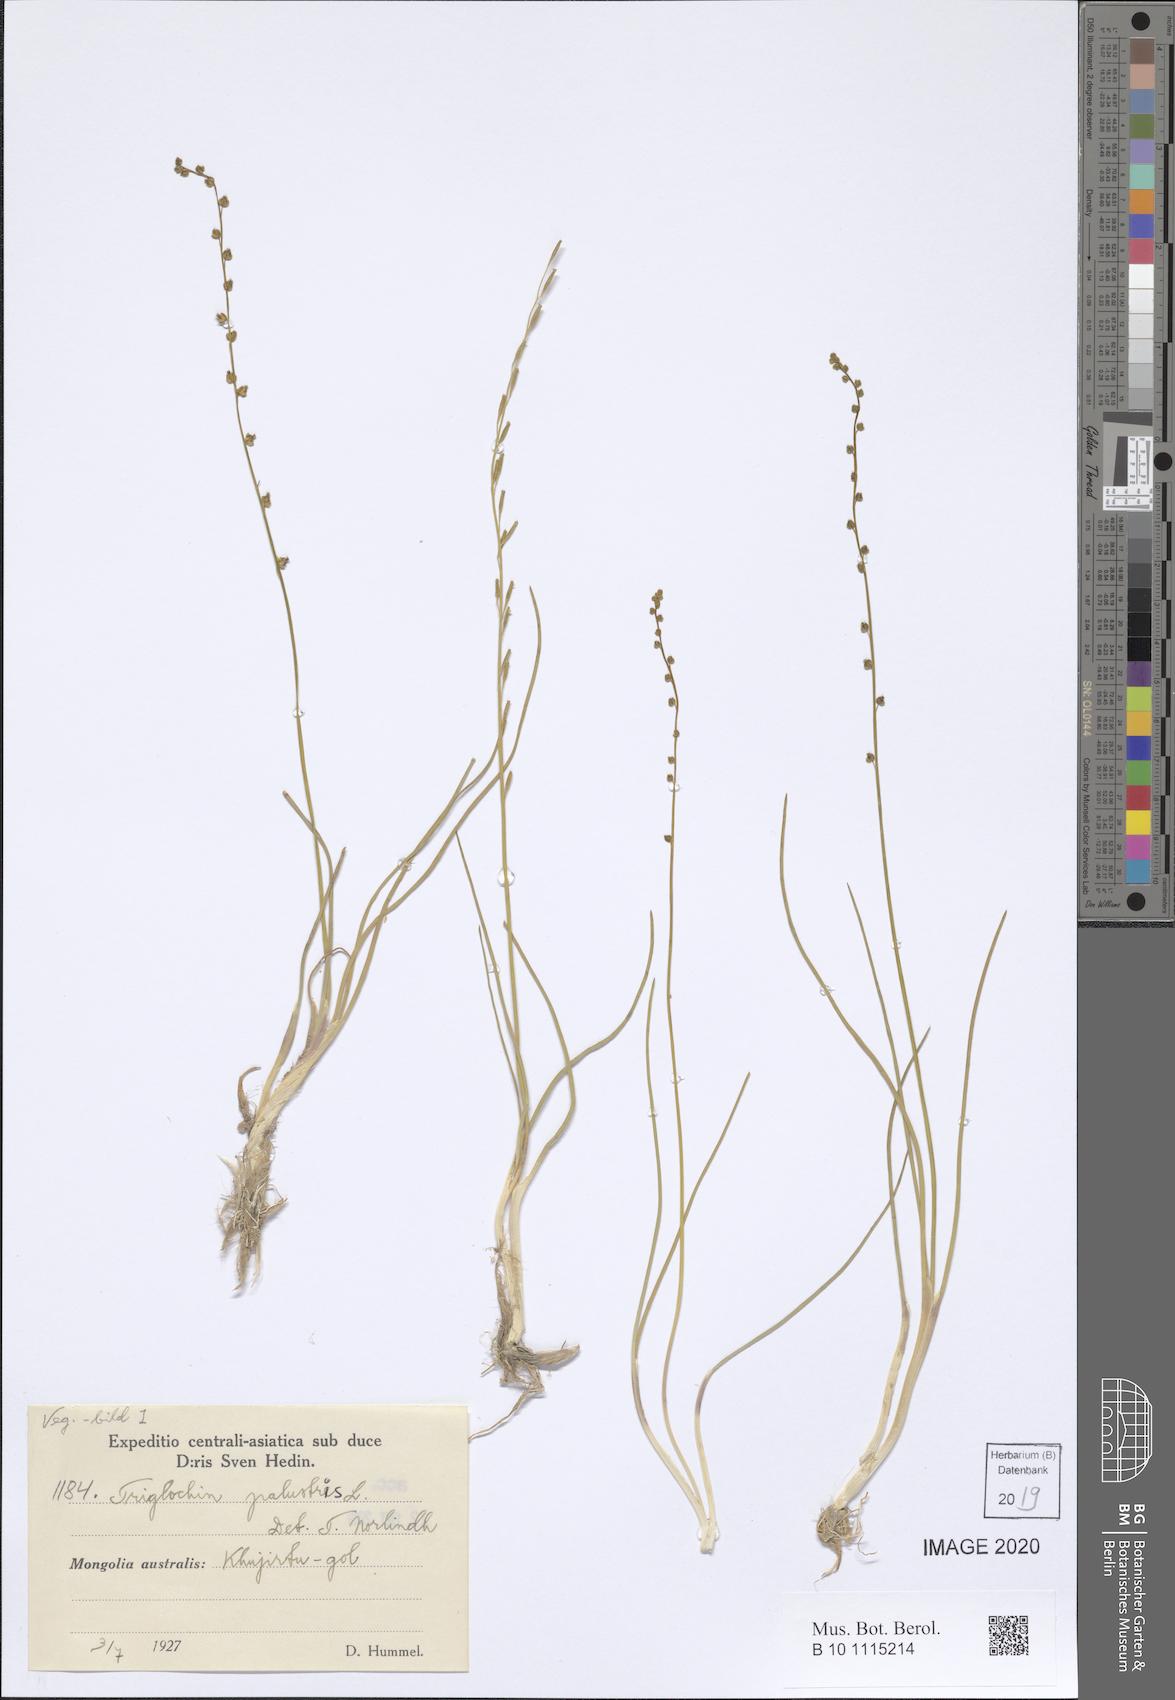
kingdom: Plantae
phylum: Tracheophyta
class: Liliopsida
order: Alismatales
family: Juncaginaceae
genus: Triglochin
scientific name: Triglochin palustris
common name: Marsh arrowgrass
